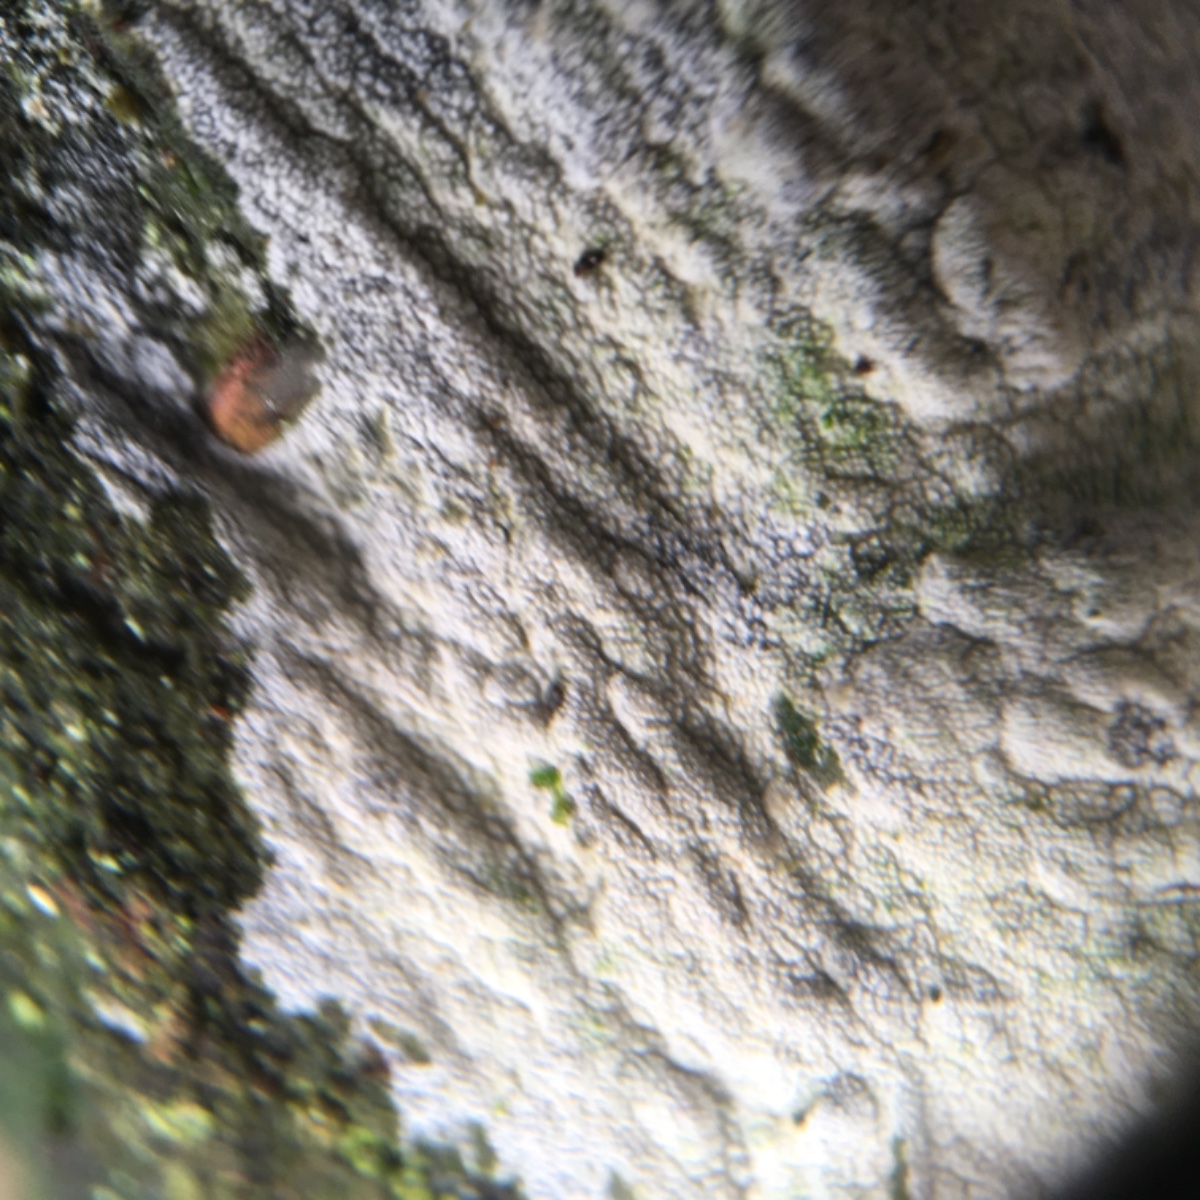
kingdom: Fungi
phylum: Basidiomycota
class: Agaricomycetes
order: Corticiales
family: Corticiaceae
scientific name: Corticiaceae
